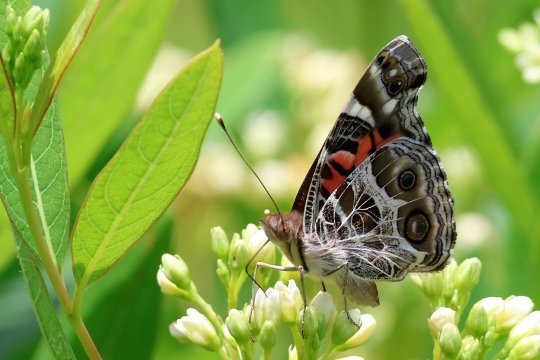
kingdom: Animalia
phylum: Arthropoda
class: Insecta
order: Lepidoptera
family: Nymphalidae
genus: Vanessa
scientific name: Vanessa virginiensis
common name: American Lady
